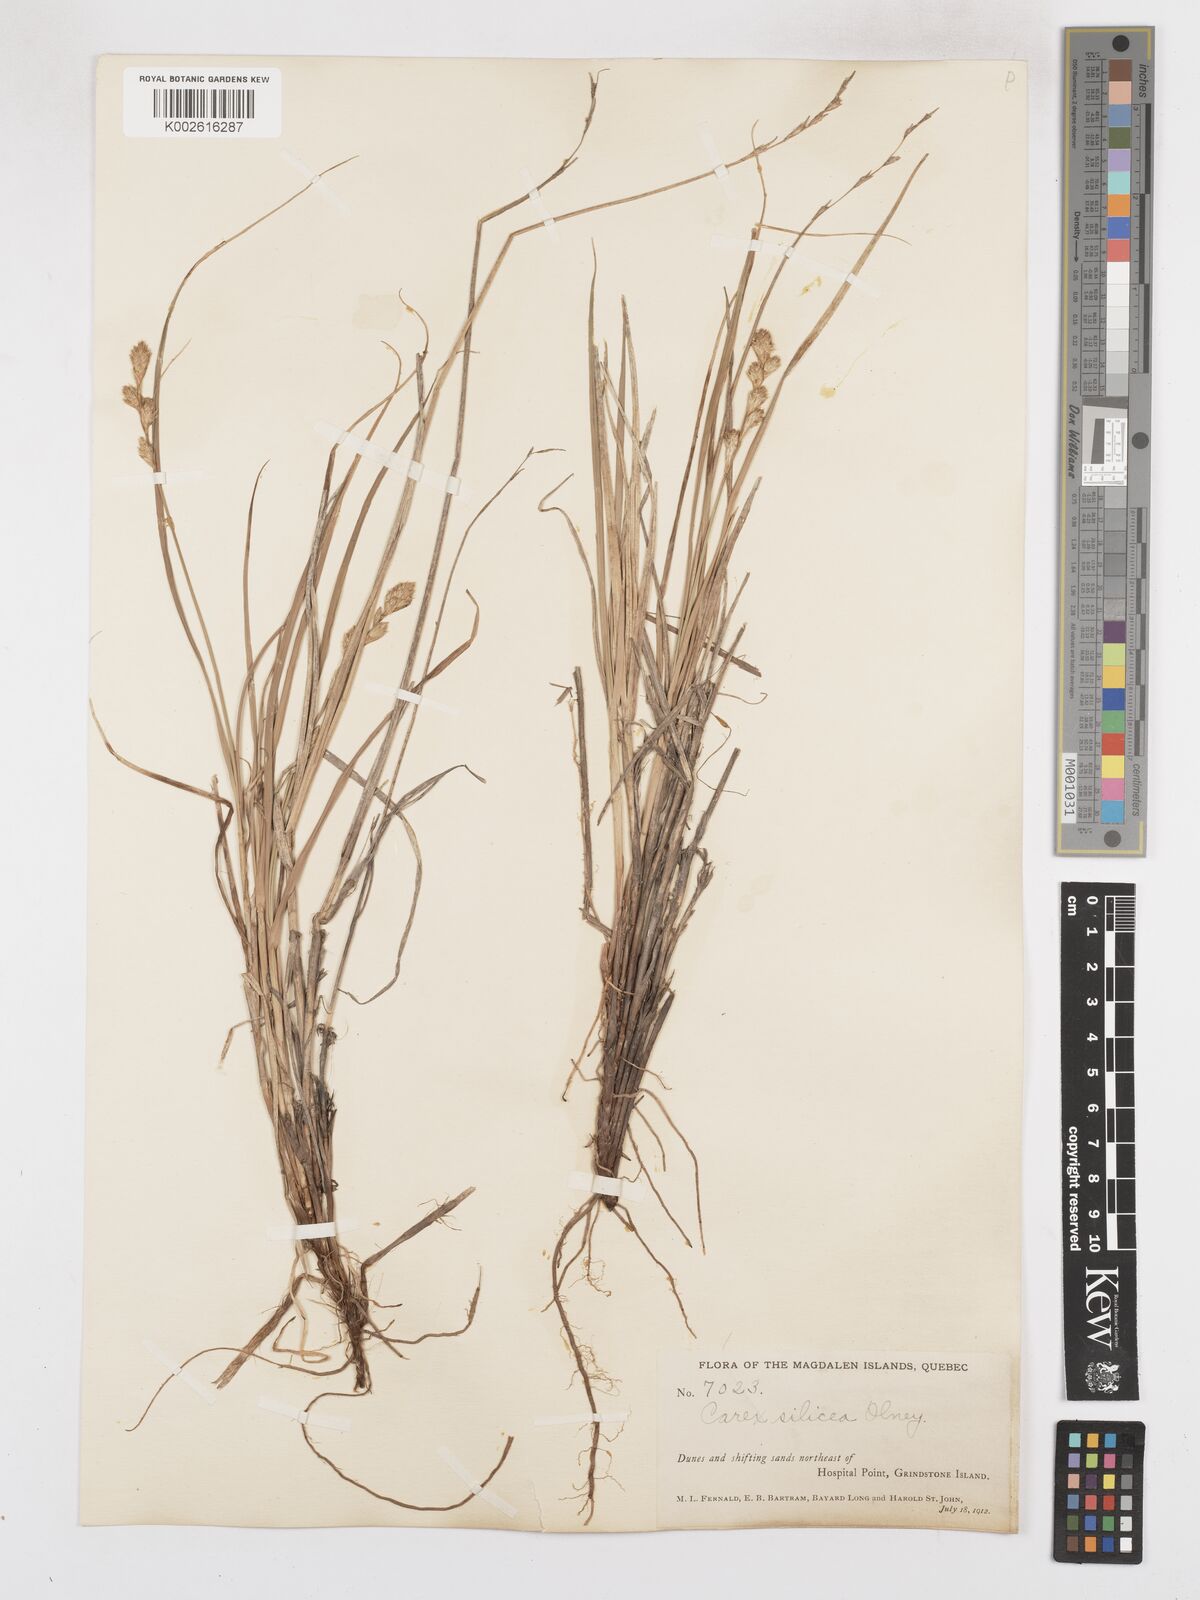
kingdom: Plantae
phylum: Tracheophyta
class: Liliopsida
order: Poales
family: Cyperaceae
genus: Carex
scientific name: Carex silicea
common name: Beach sedge
